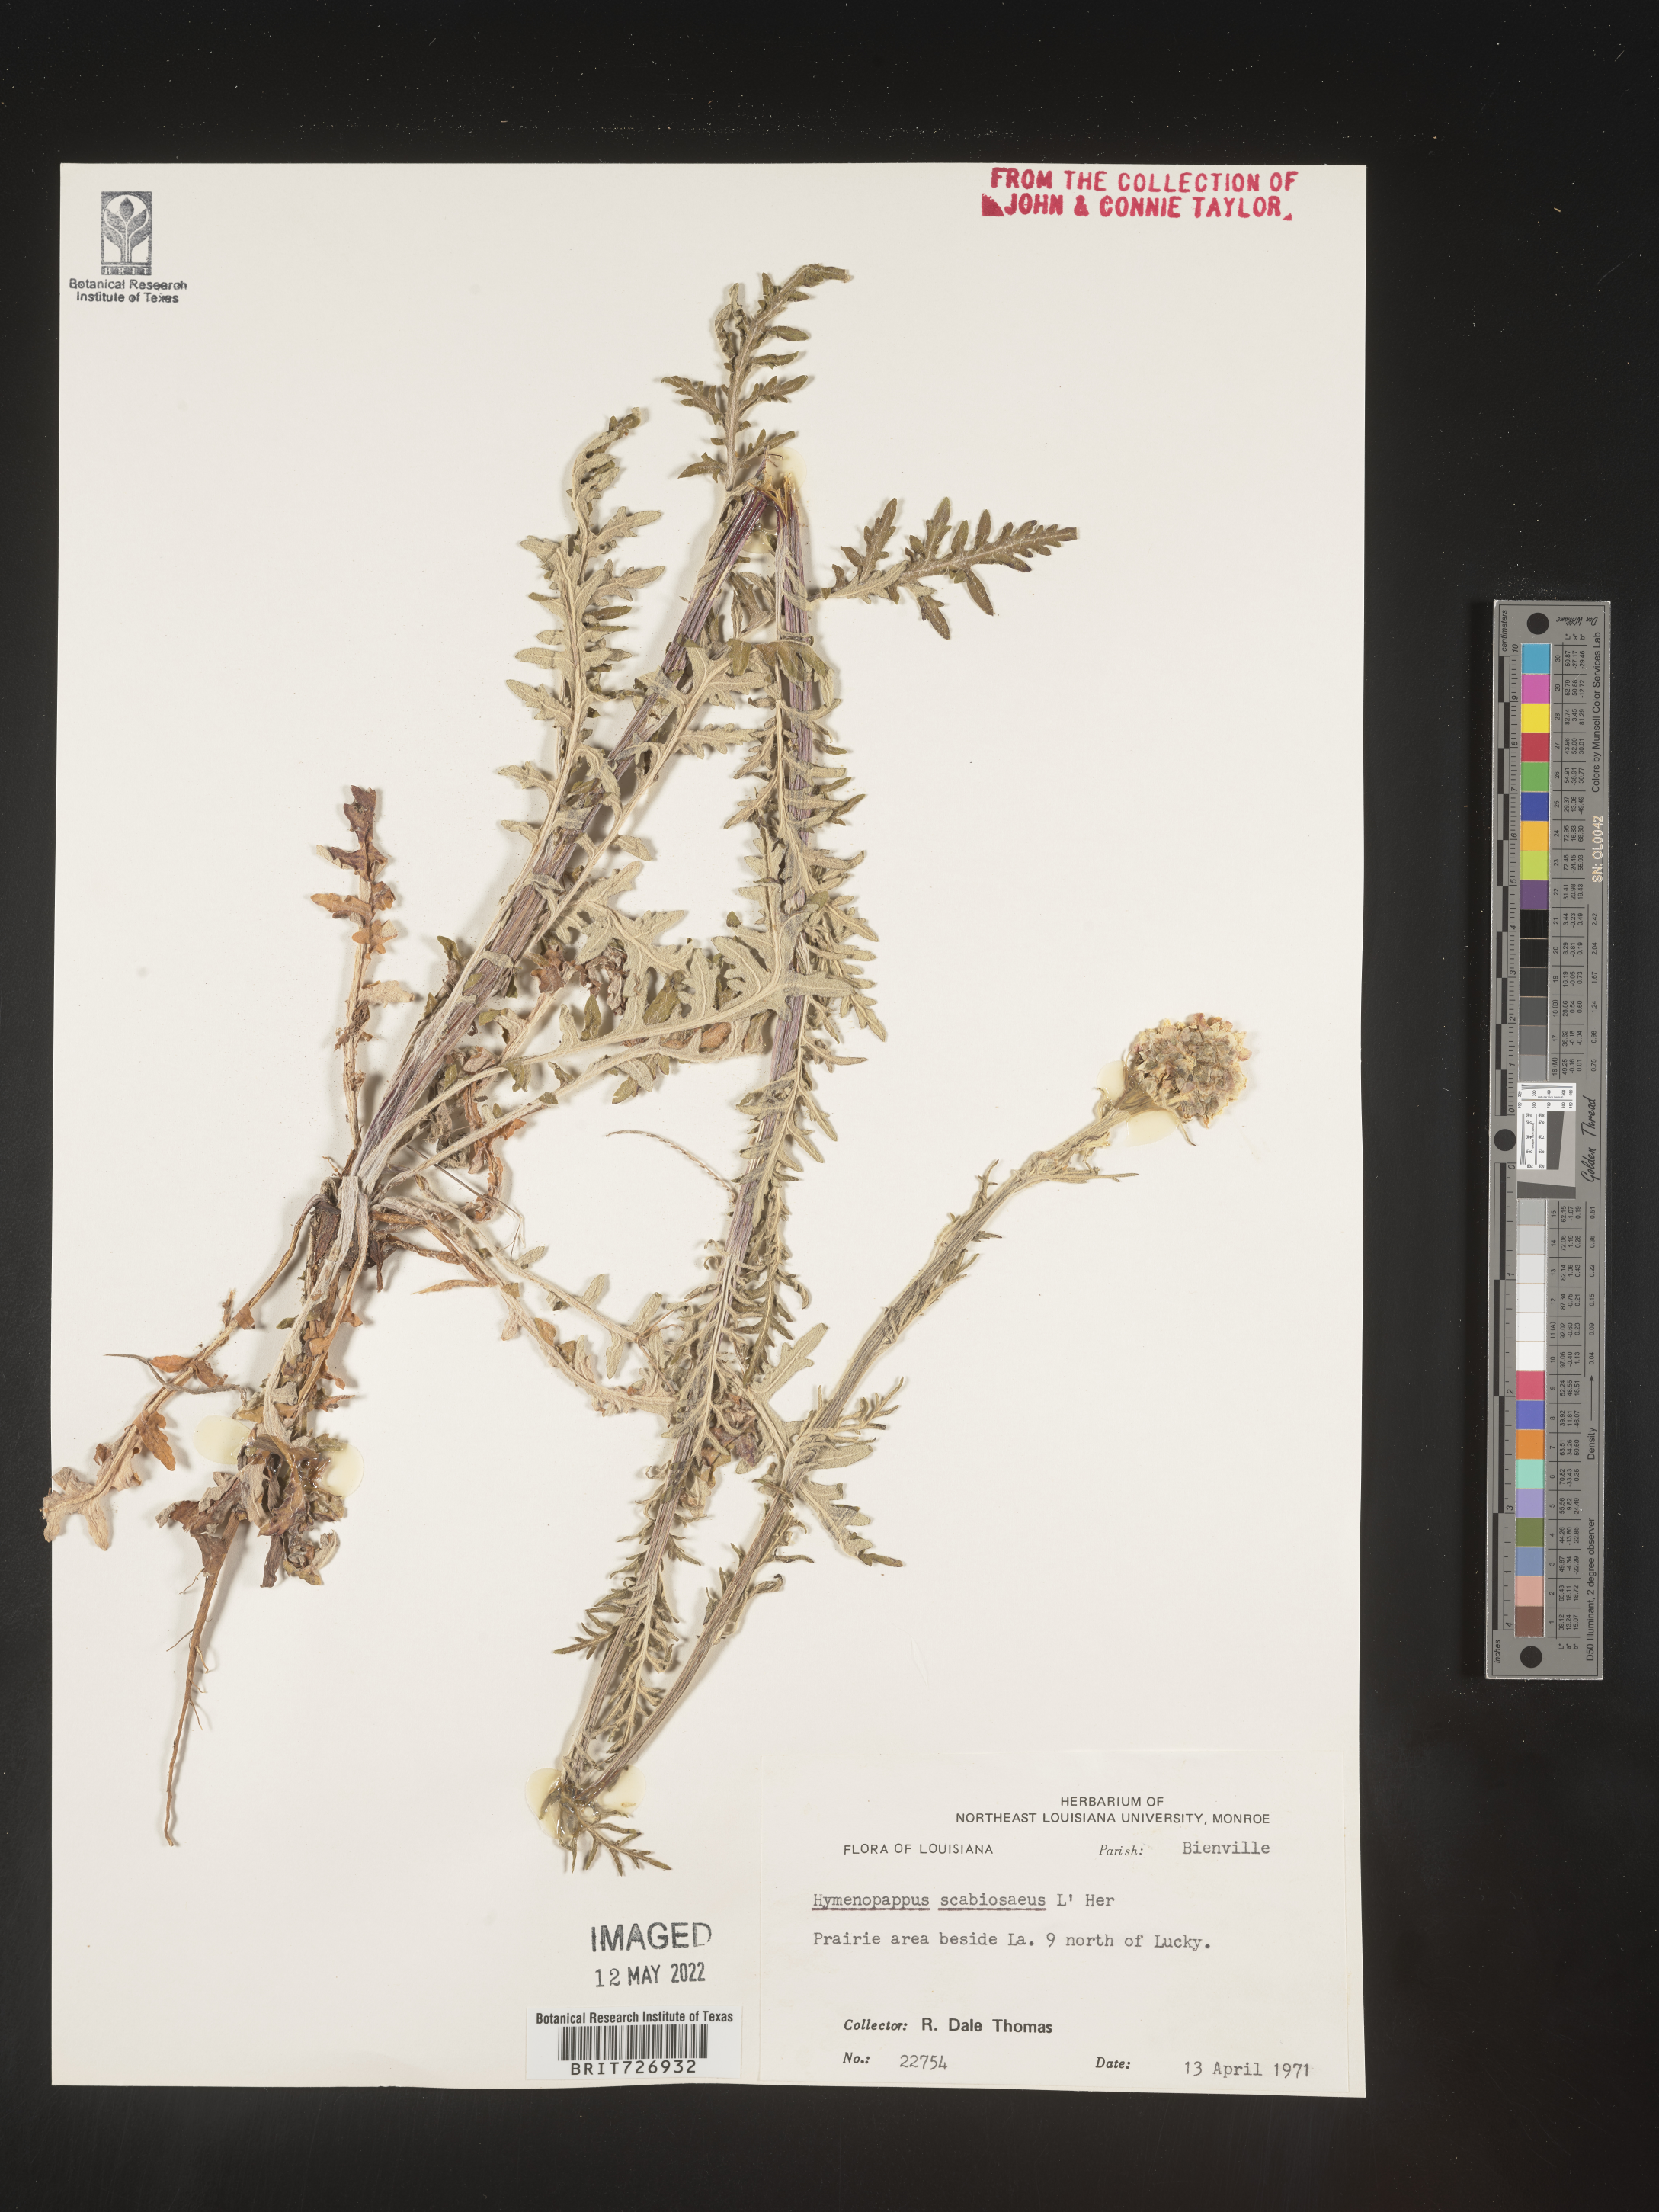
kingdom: Plantae
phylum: Tracheophyta
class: Magnoliopsida
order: Asterales
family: Asteraceae
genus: Hymenopappus
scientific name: Hymenopappus scabiosaeus
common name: Carolina woollywhite
